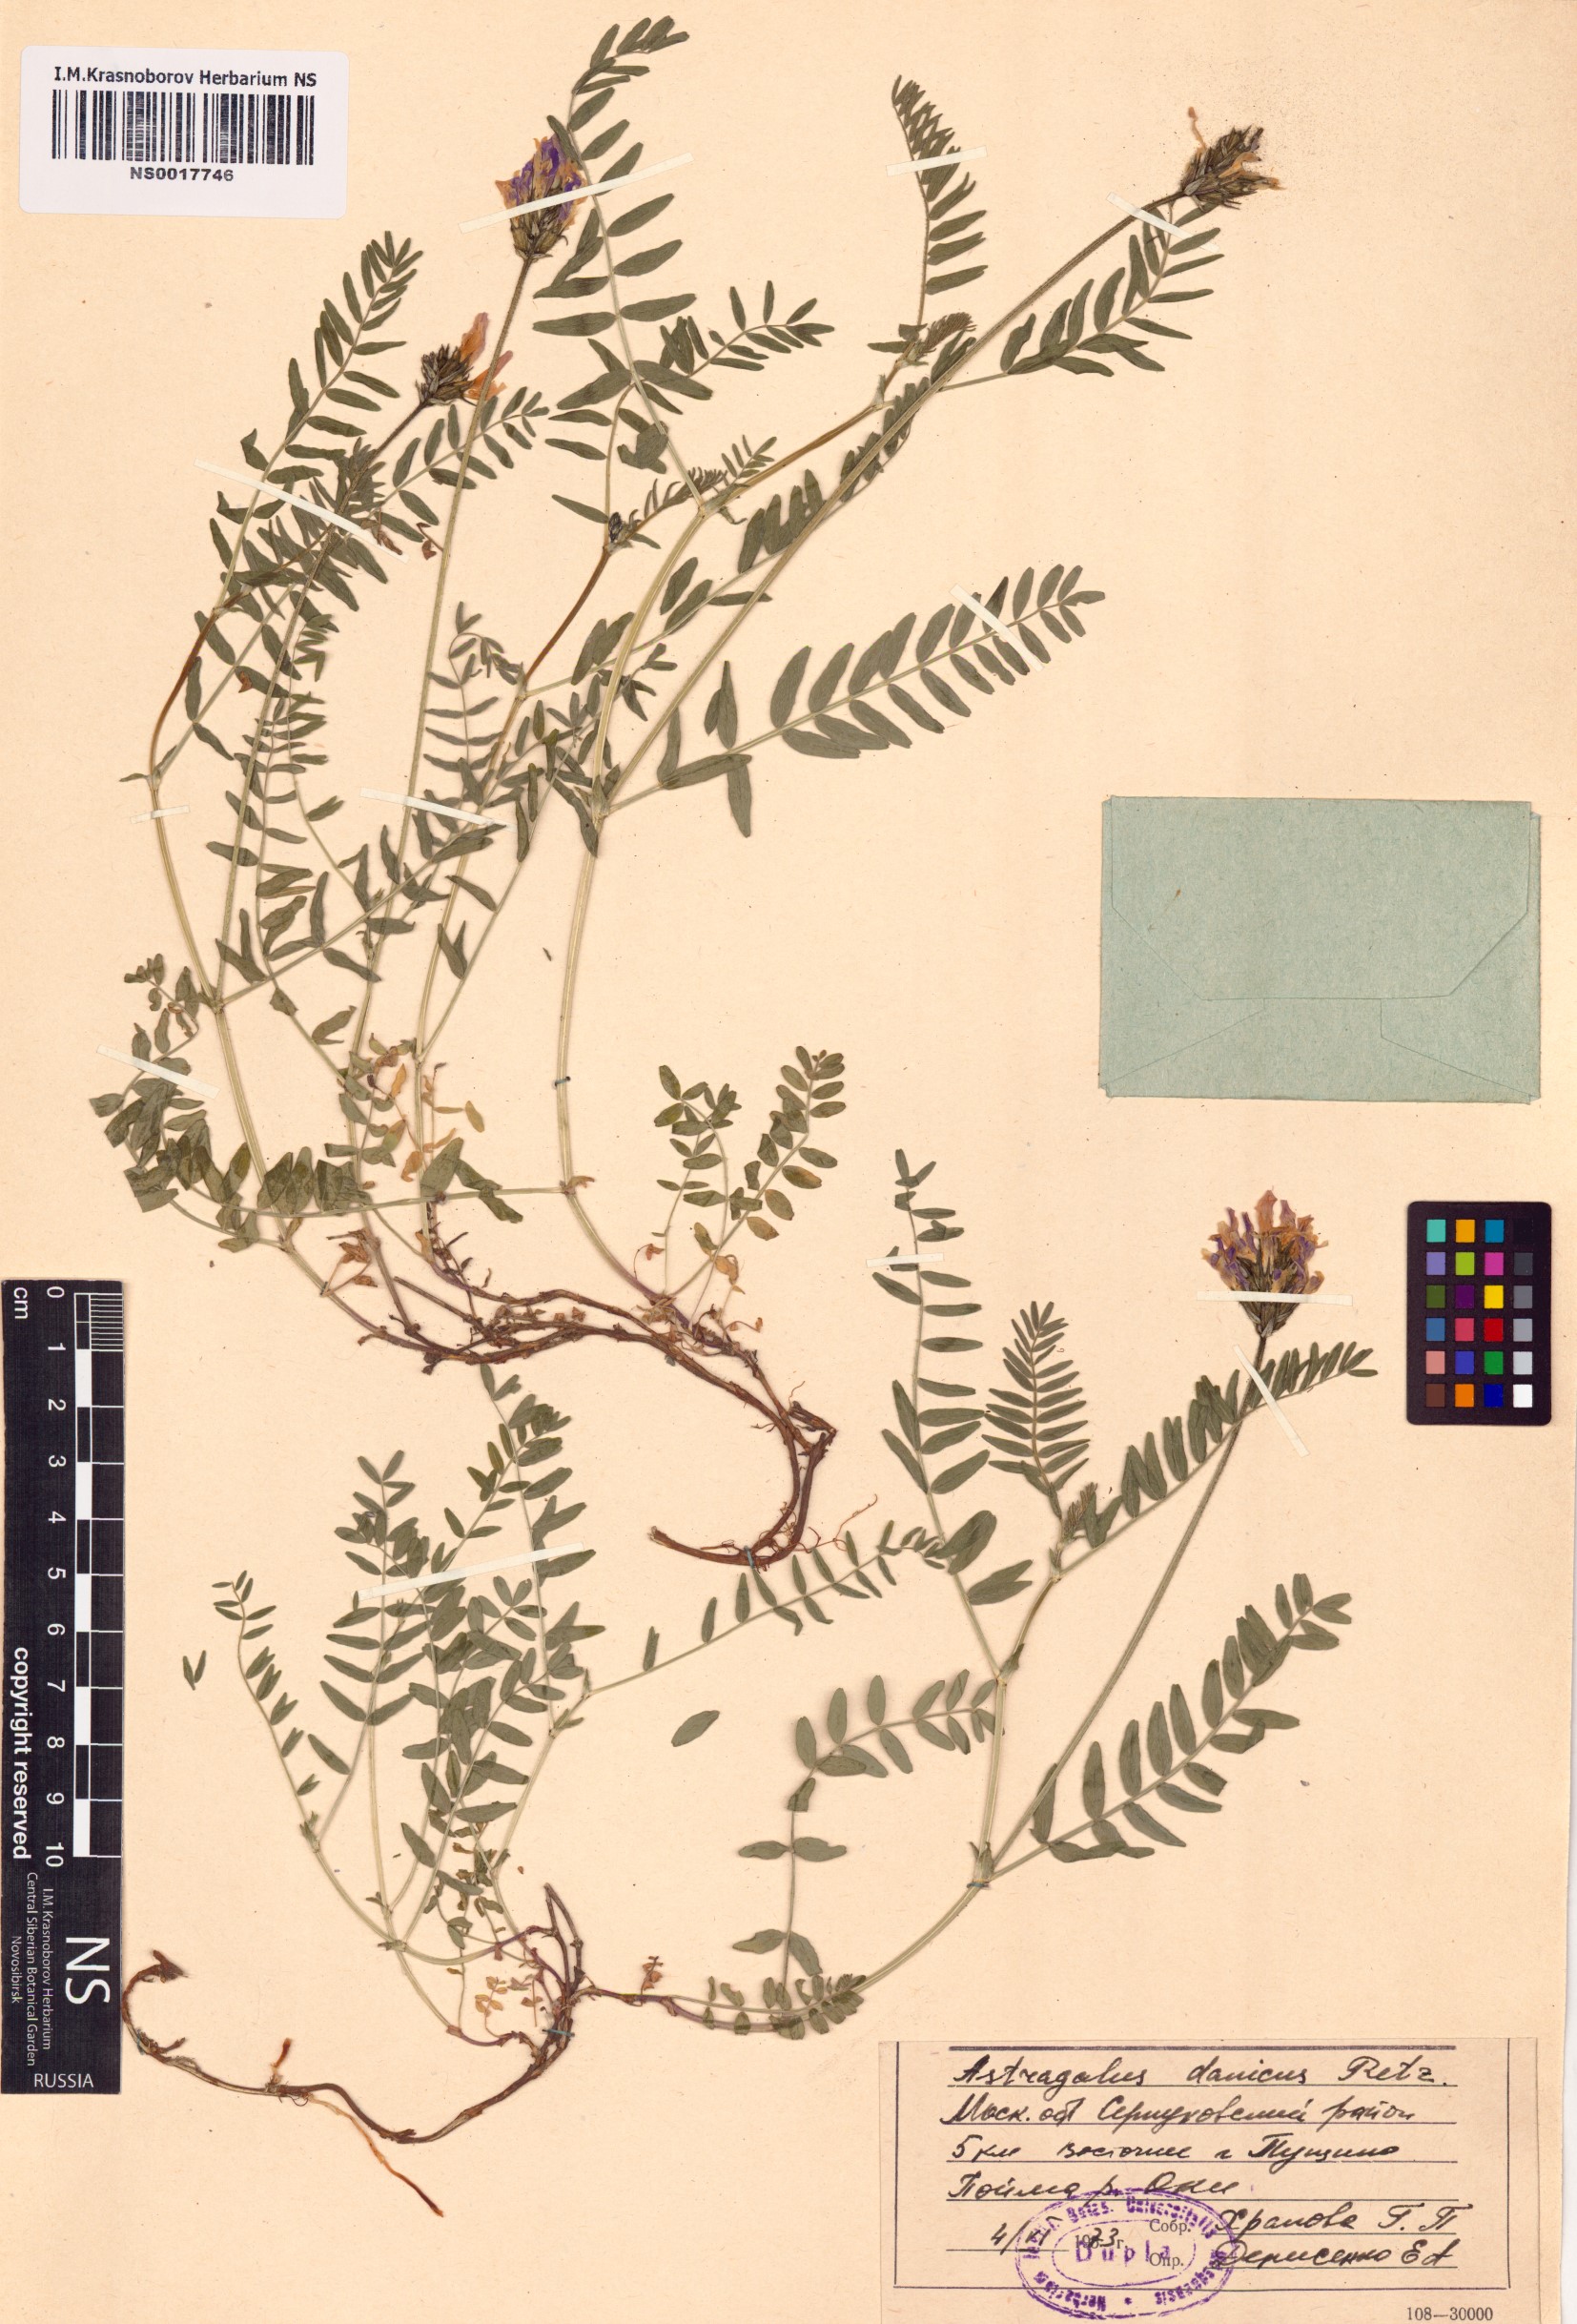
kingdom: Plantae
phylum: Tracheophyta
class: Magnoliopsida
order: Fabales
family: Fabaceae
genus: Astragalus
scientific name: Astragalus danicus
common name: Purple milk-vetch
